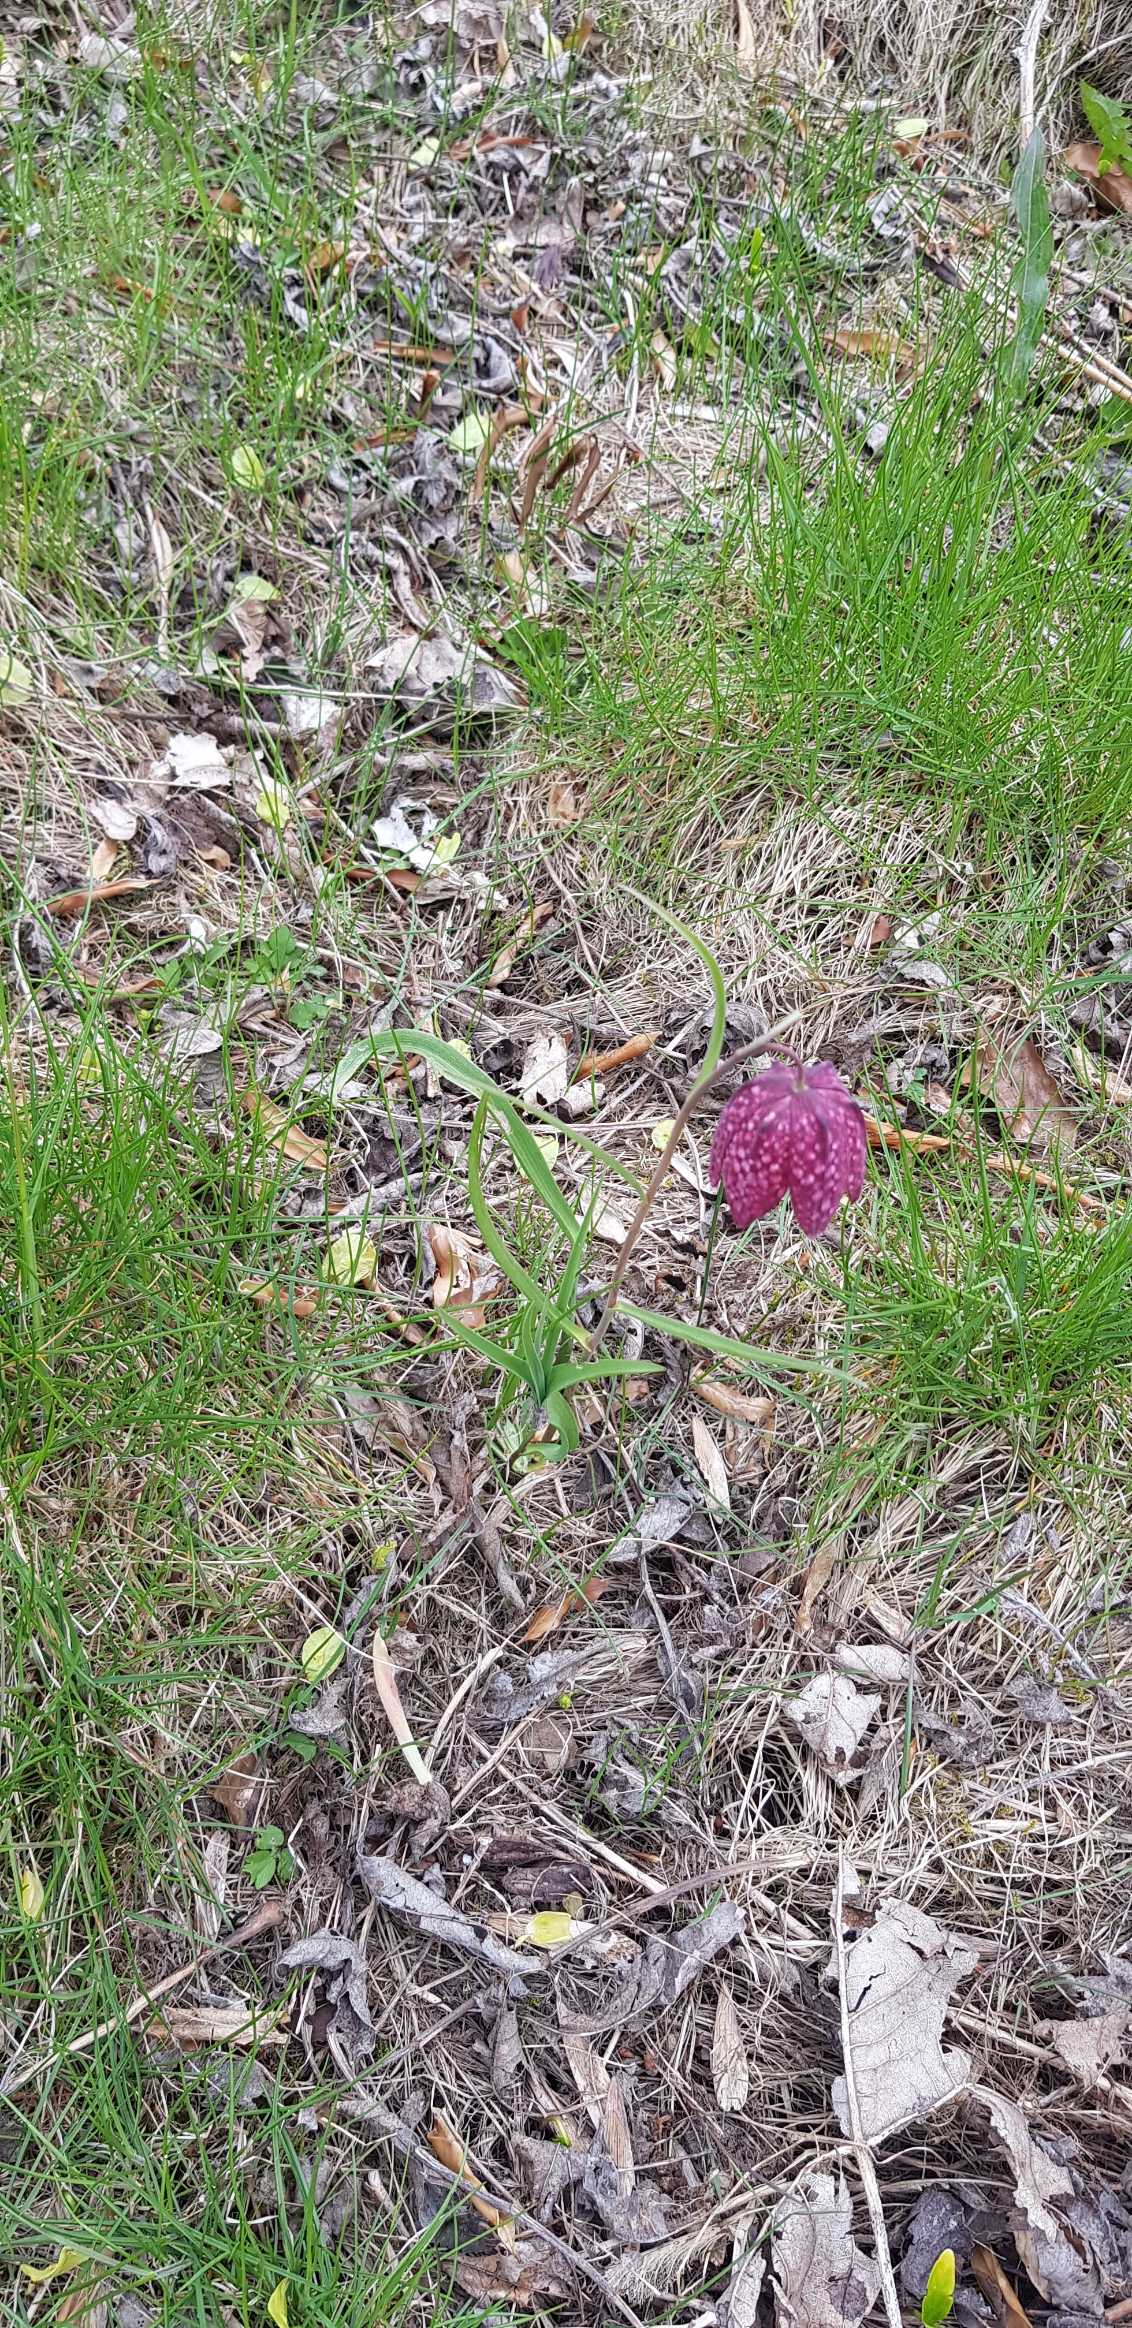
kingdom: Plantae
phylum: Tracheophyta
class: Liliopsida
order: Liliales
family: Liliaceae
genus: Fritillaria
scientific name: Fritillaria meleagris
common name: Vibeæg
